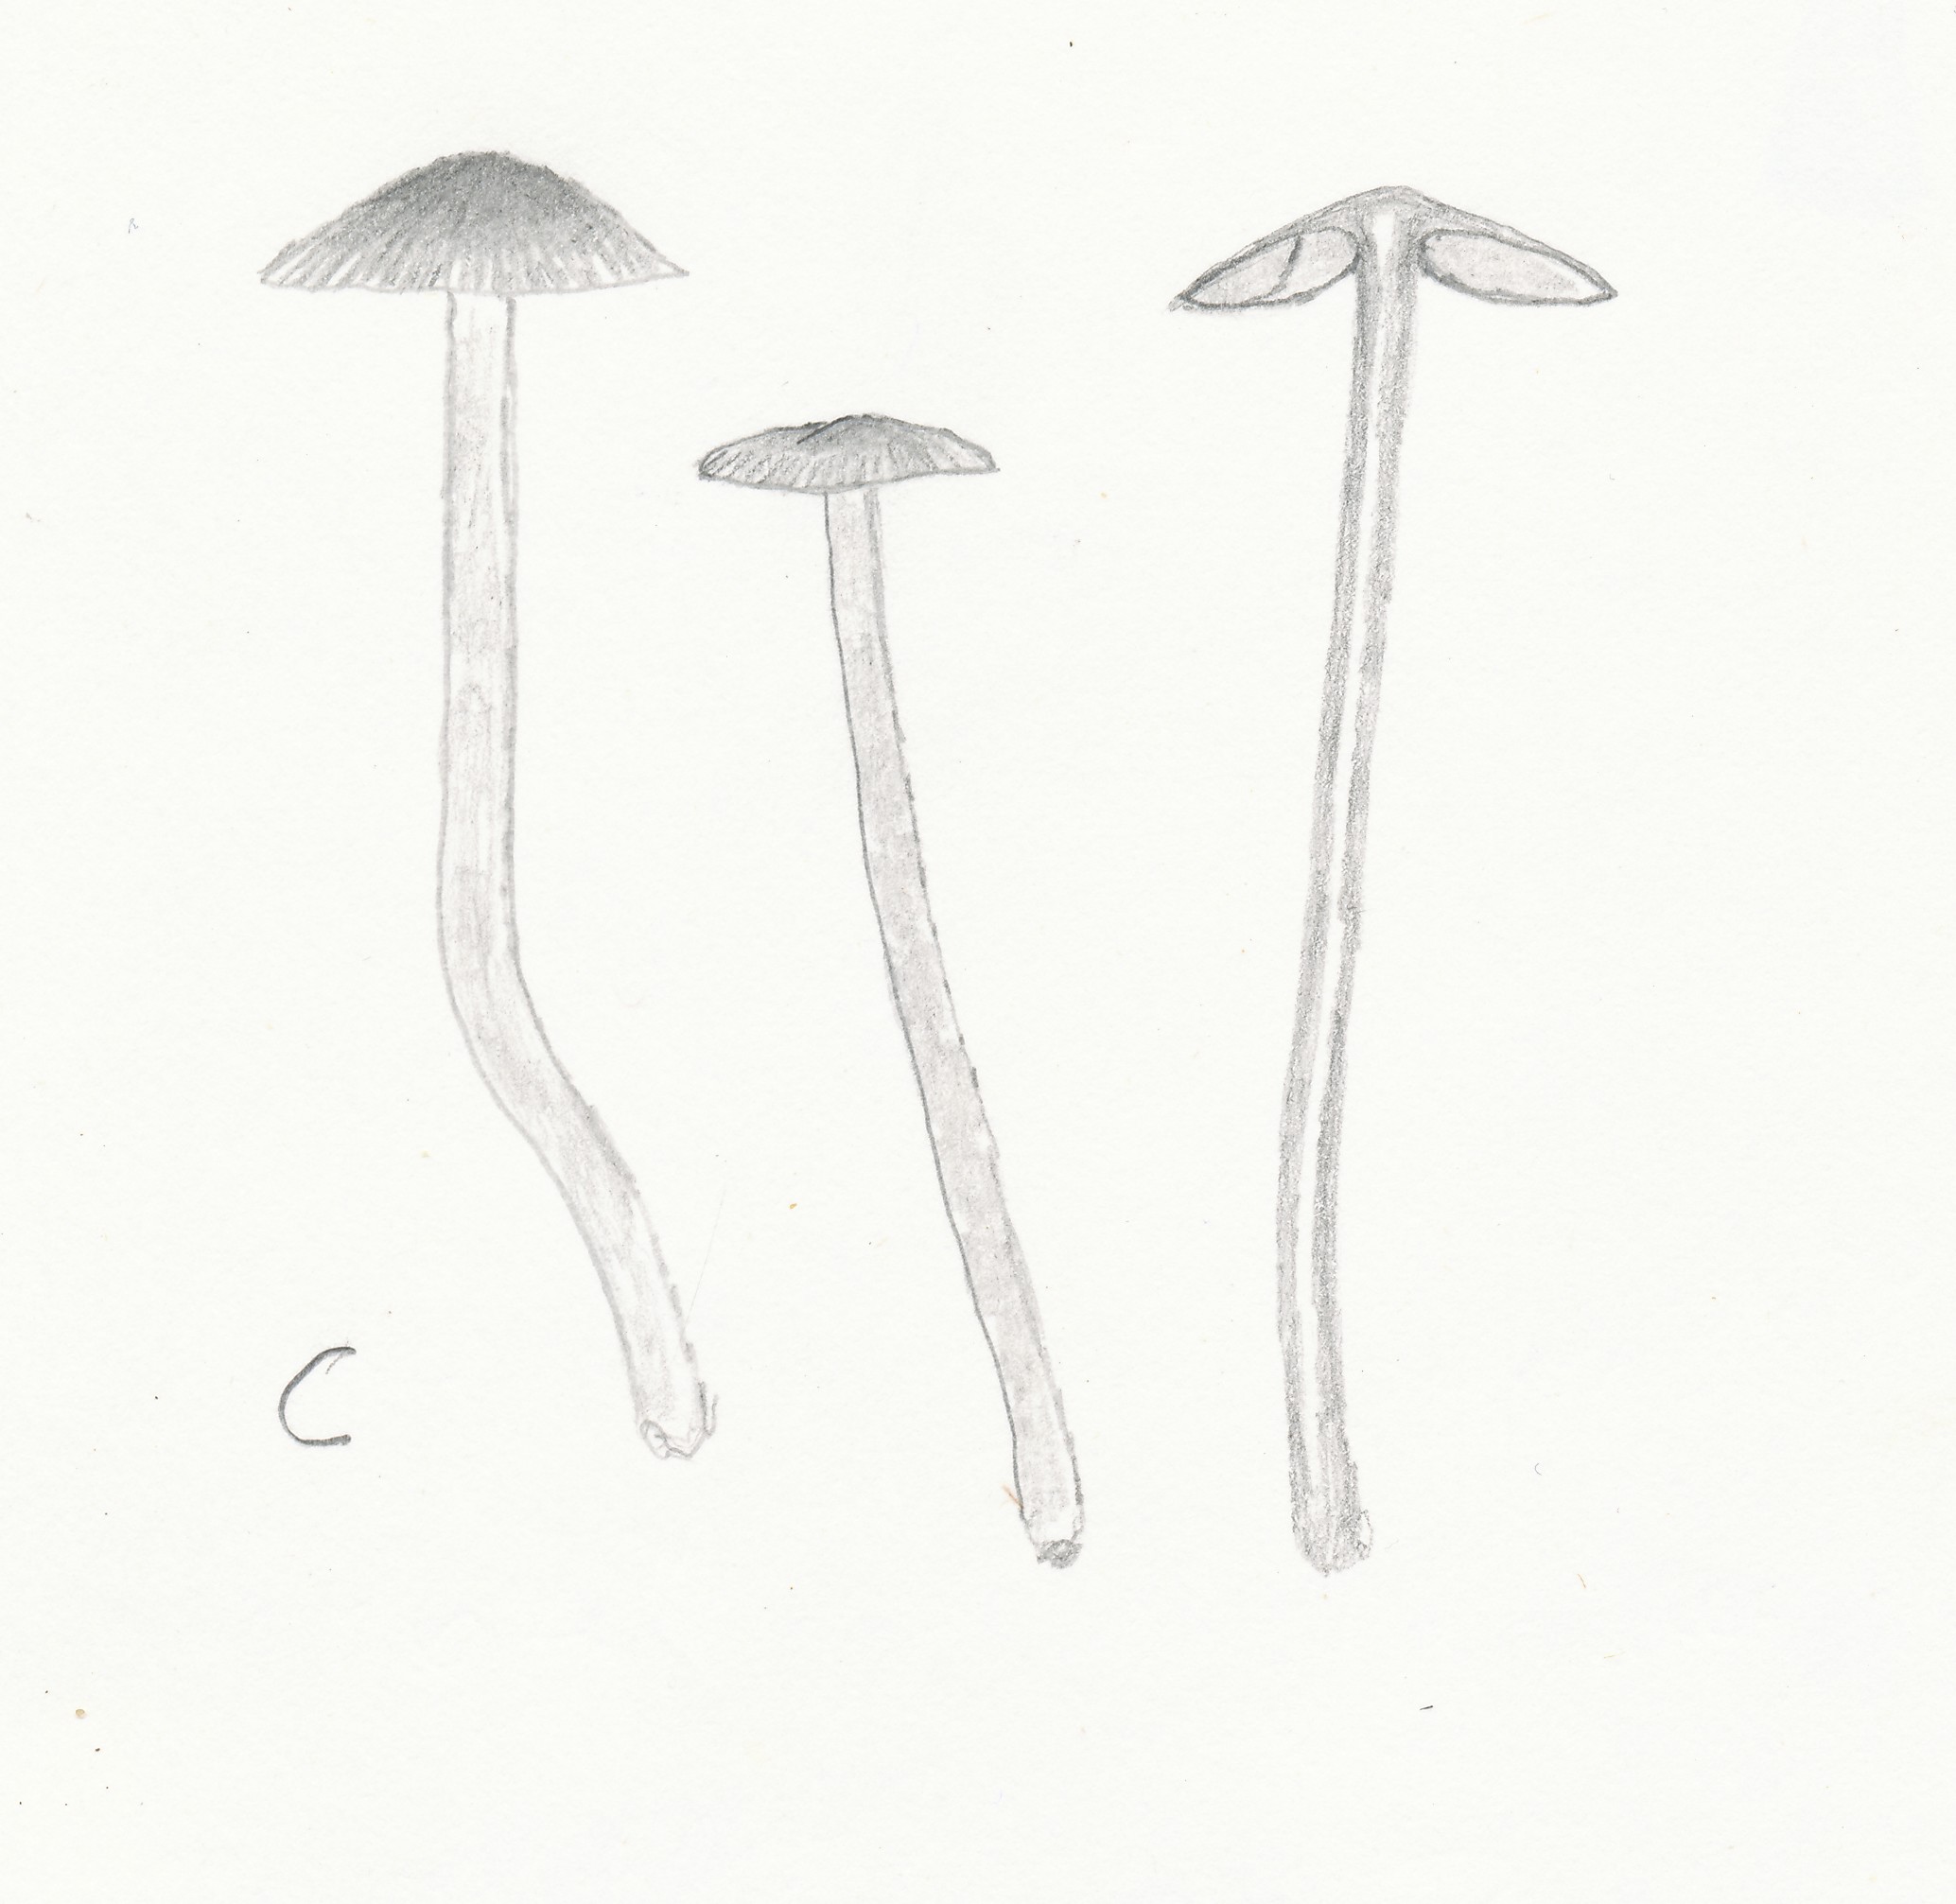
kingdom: Fungi
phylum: Basidiomycota
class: Agaricomycetes
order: Agaricales
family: Hymenogastraceae
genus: Naucoria
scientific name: Naucoria salicis
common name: pile-knaphat
